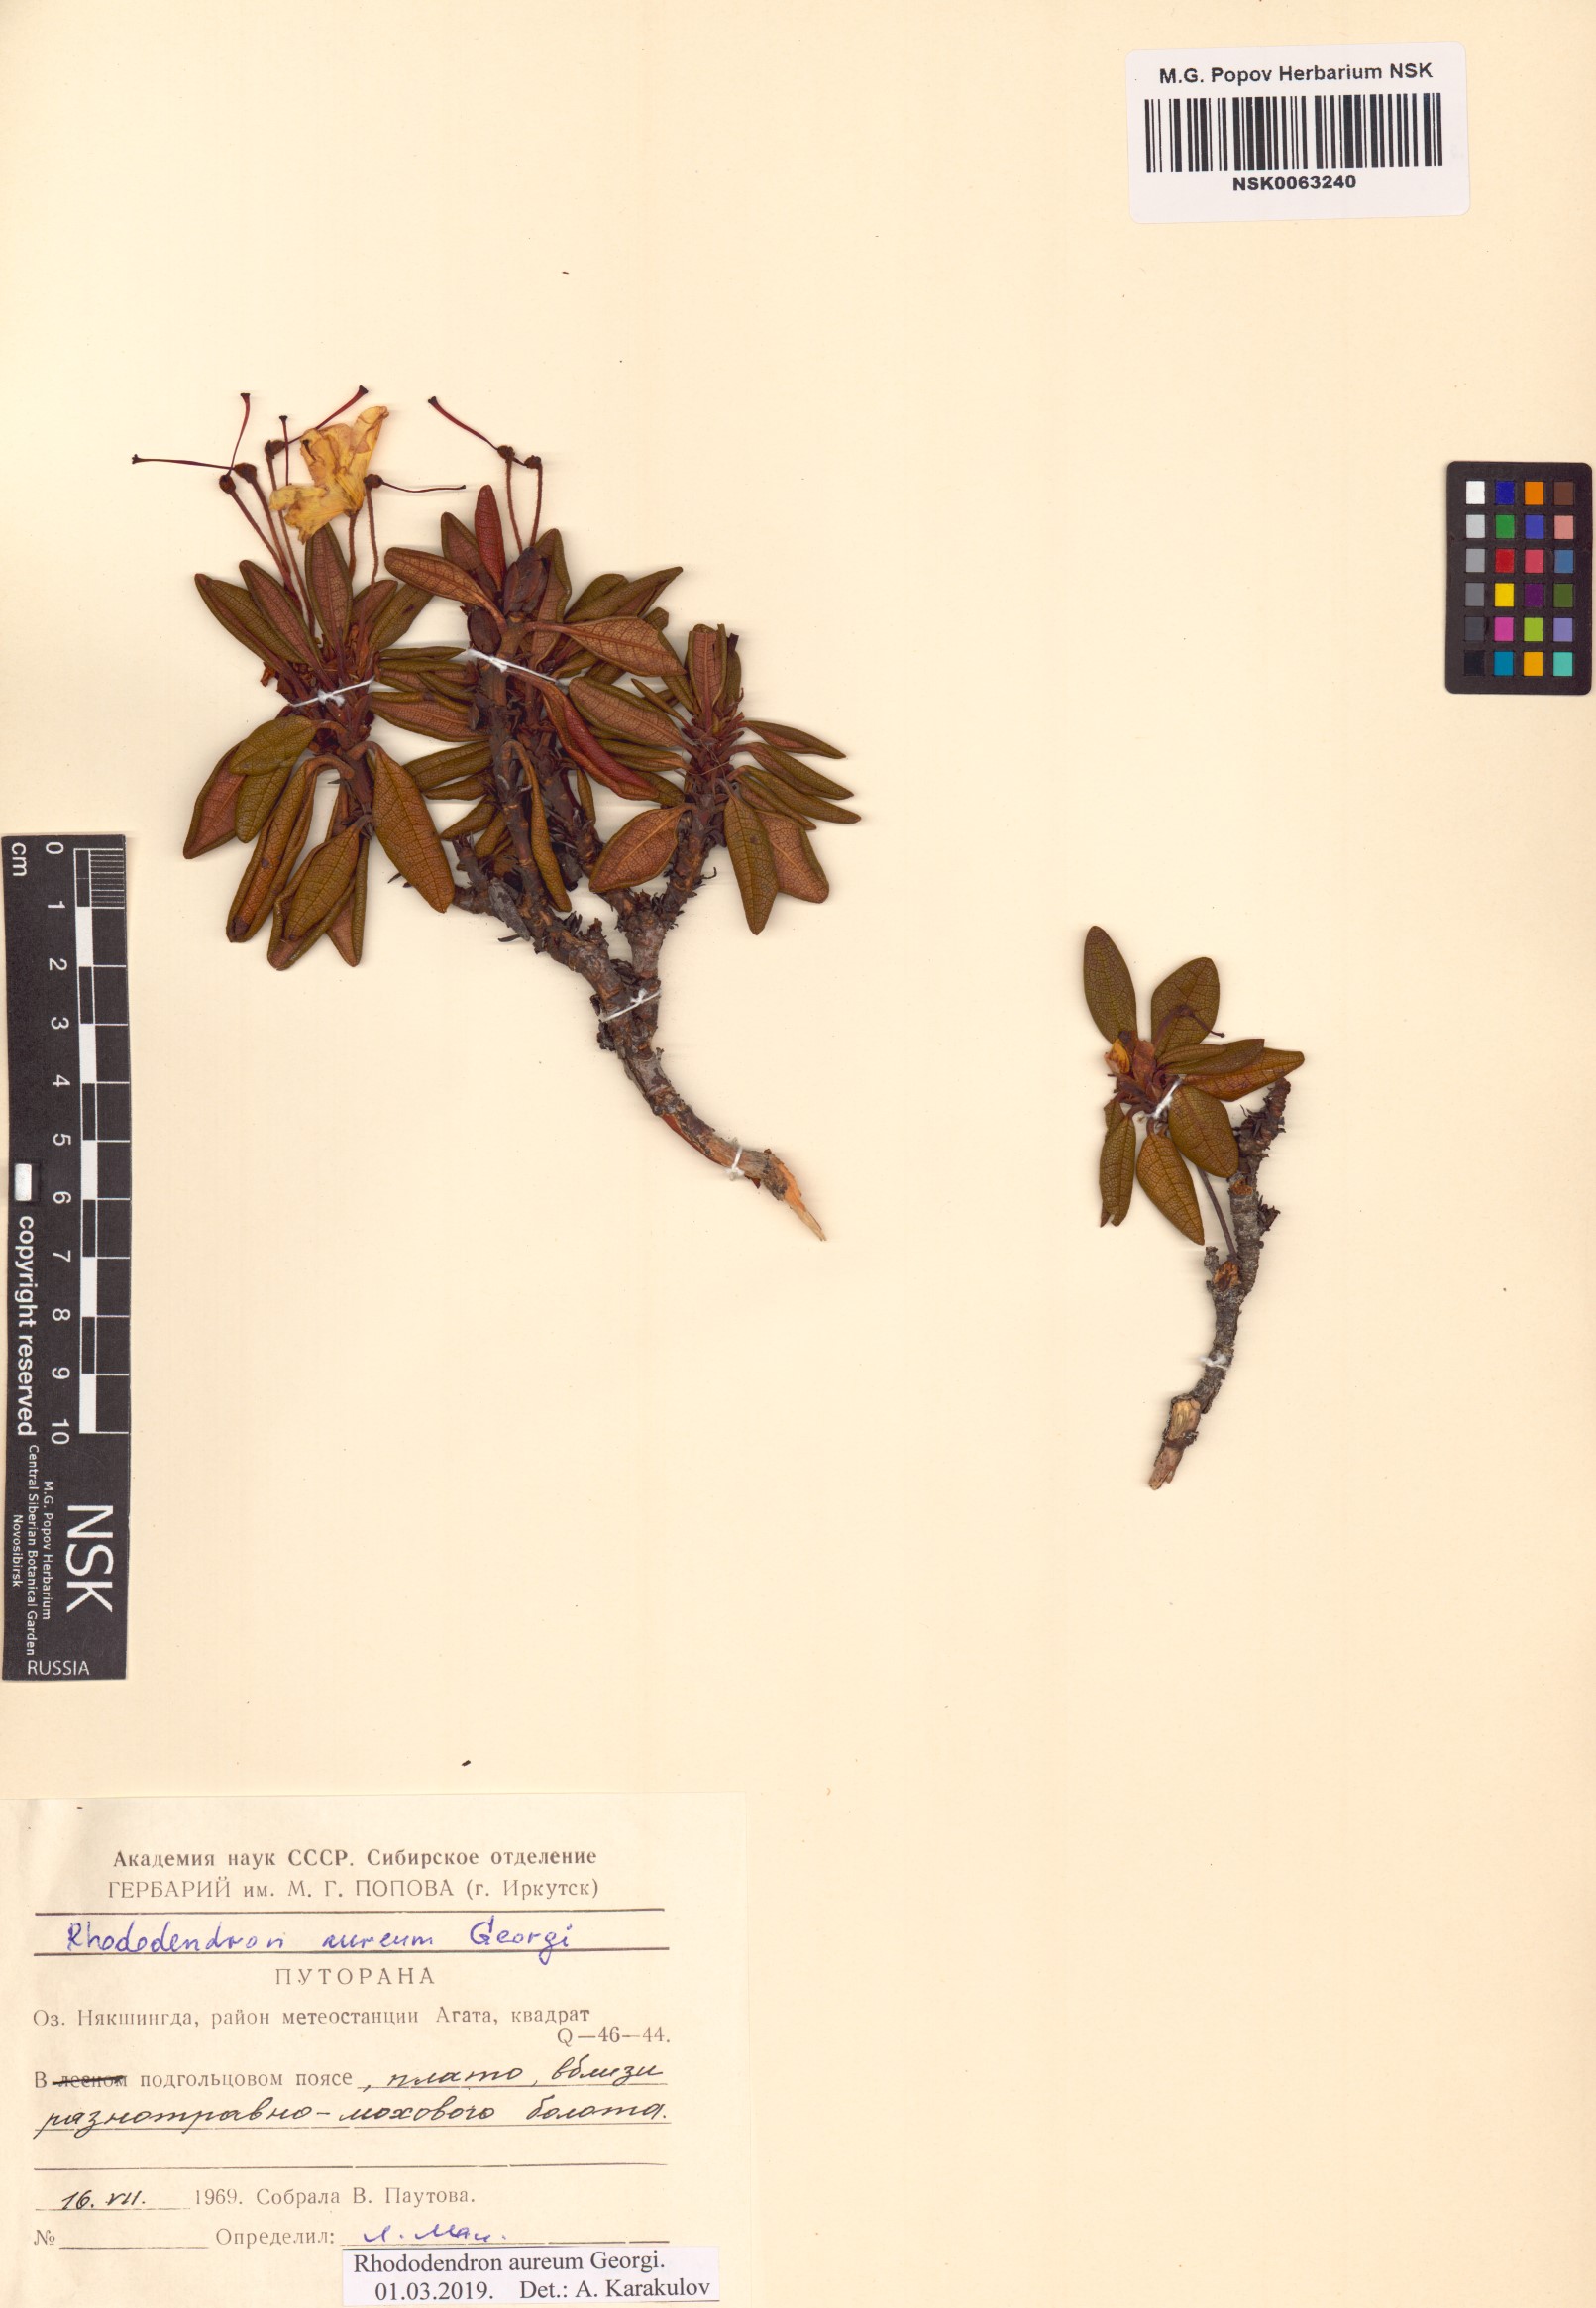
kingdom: Plantae
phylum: Tracheophyta
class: Magnoliopsida
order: Ericales
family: Ericaceae
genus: Rhododendron
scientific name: Rhododendron aureum
